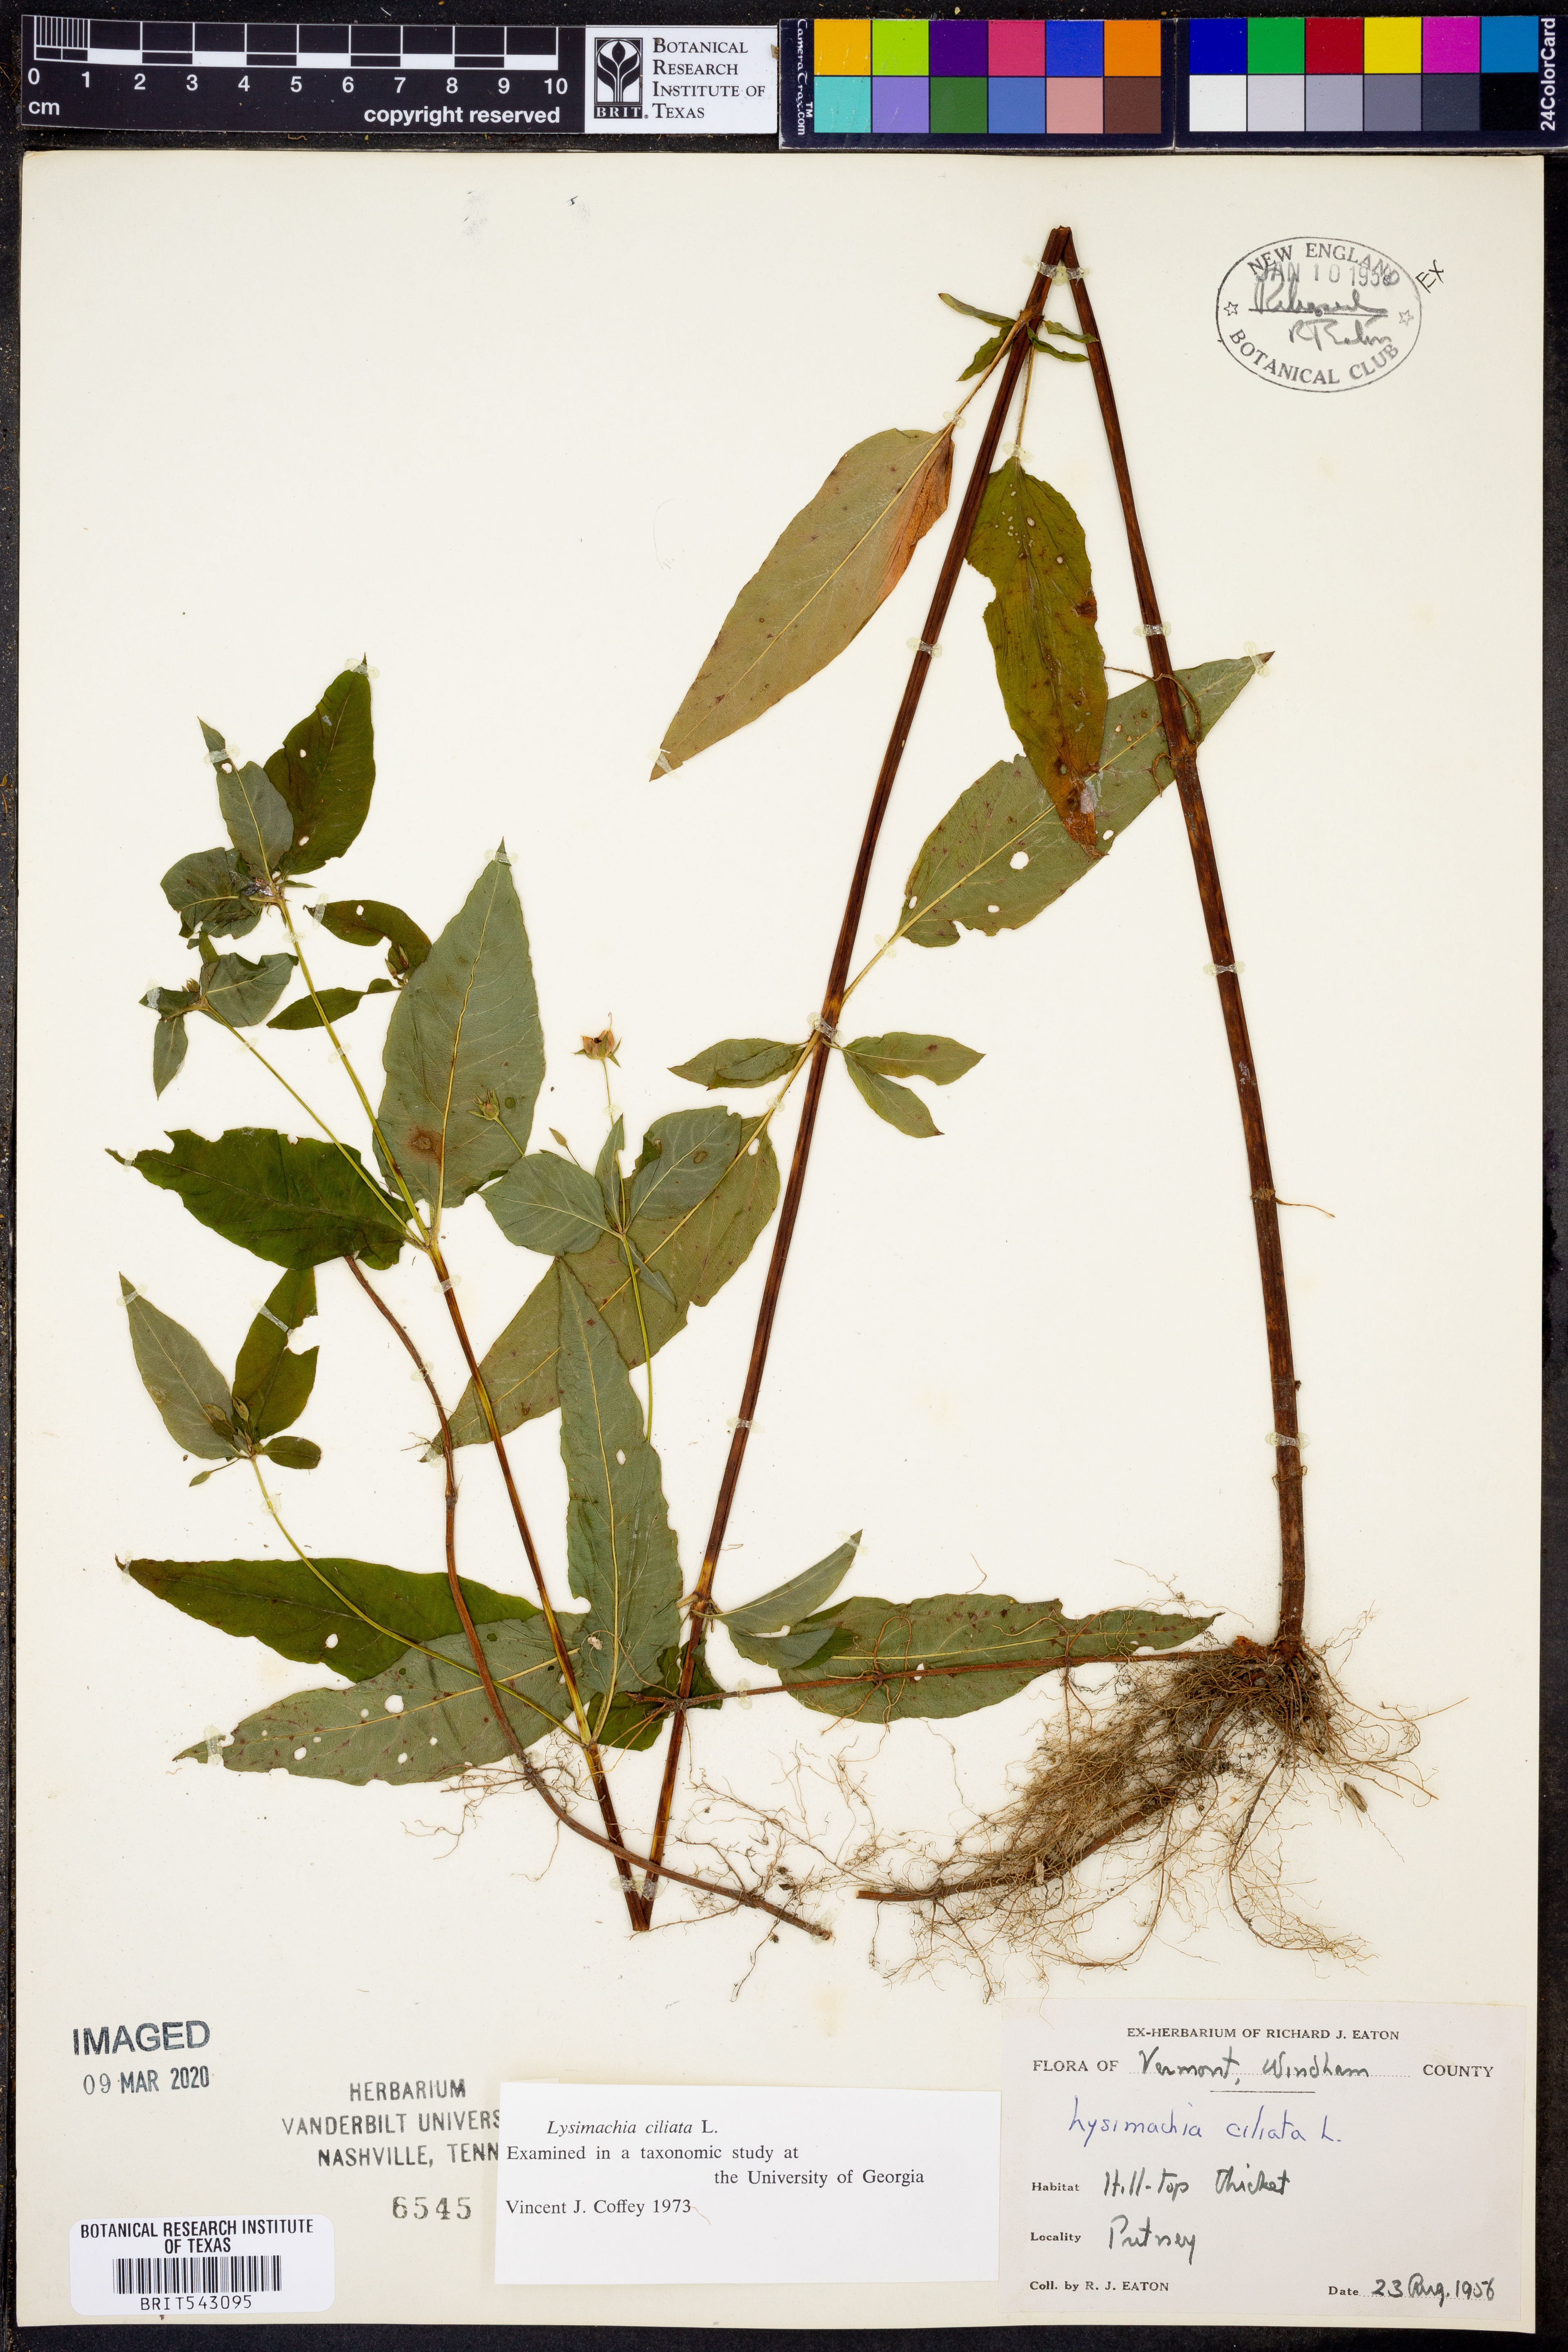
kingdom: Plantae
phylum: Tracheophyta
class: Magnoliopsida
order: Ericales
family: Primulaceae
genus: Lysimachia
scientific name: Lysimachia ciliata
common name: Fringed loosestrife
